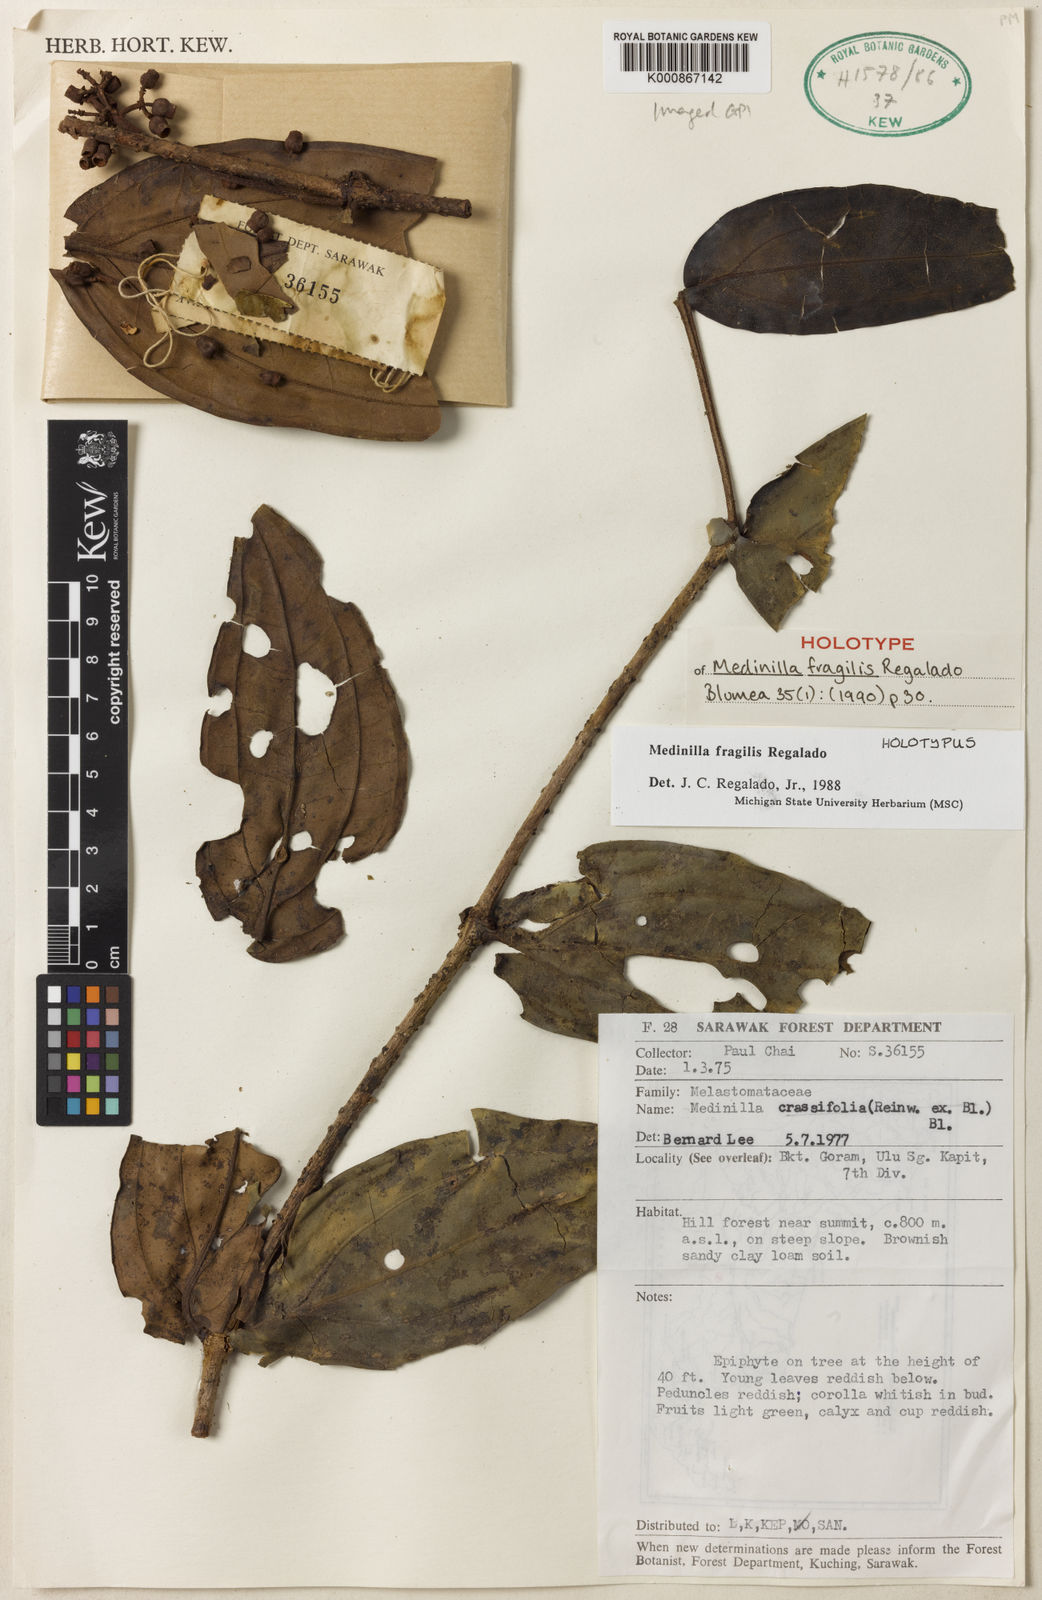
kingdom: Plantae
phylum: Tracheophyta
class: Magnoliopsida
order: Myrtales
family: Melastomataceae
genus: Medinilla
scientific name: Medinilla fragilis
